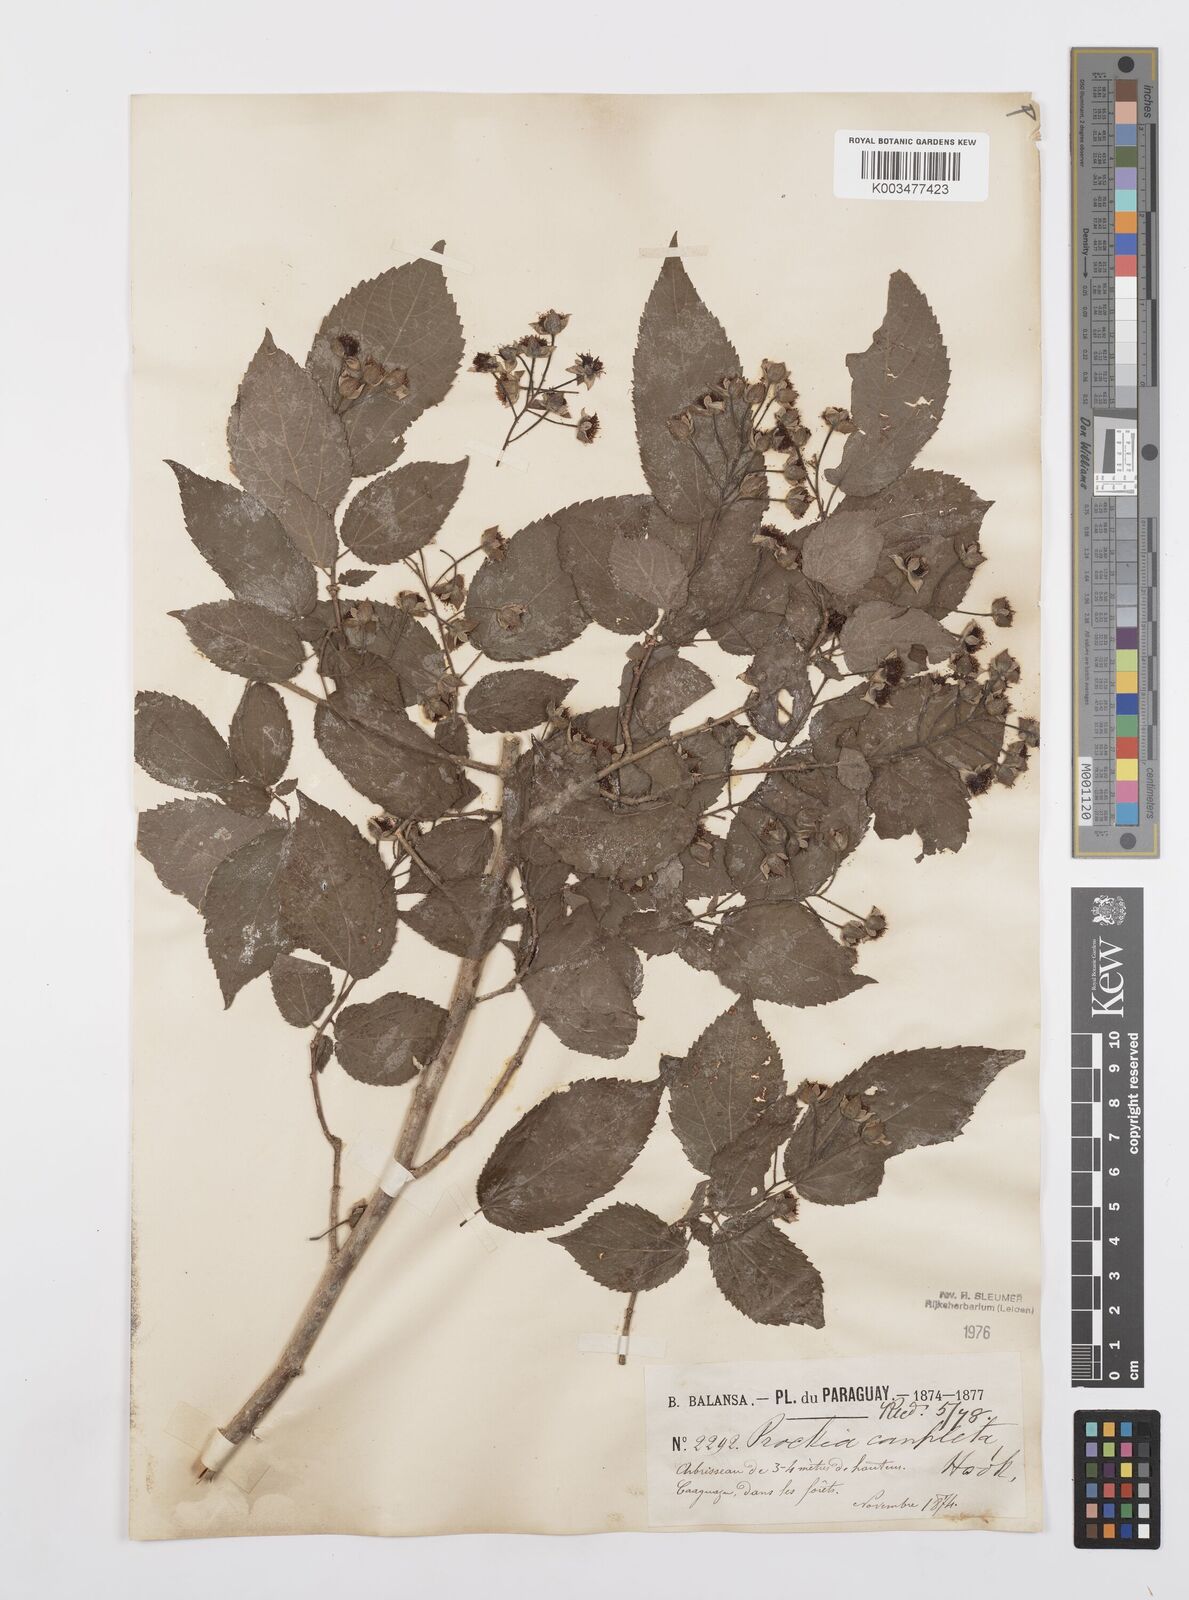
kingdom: Plantae
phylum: Tracheophyta
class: Magnoliopsida
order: Malpighiales
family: Salicaceae
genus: Prockia
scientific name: Prockia crucis
